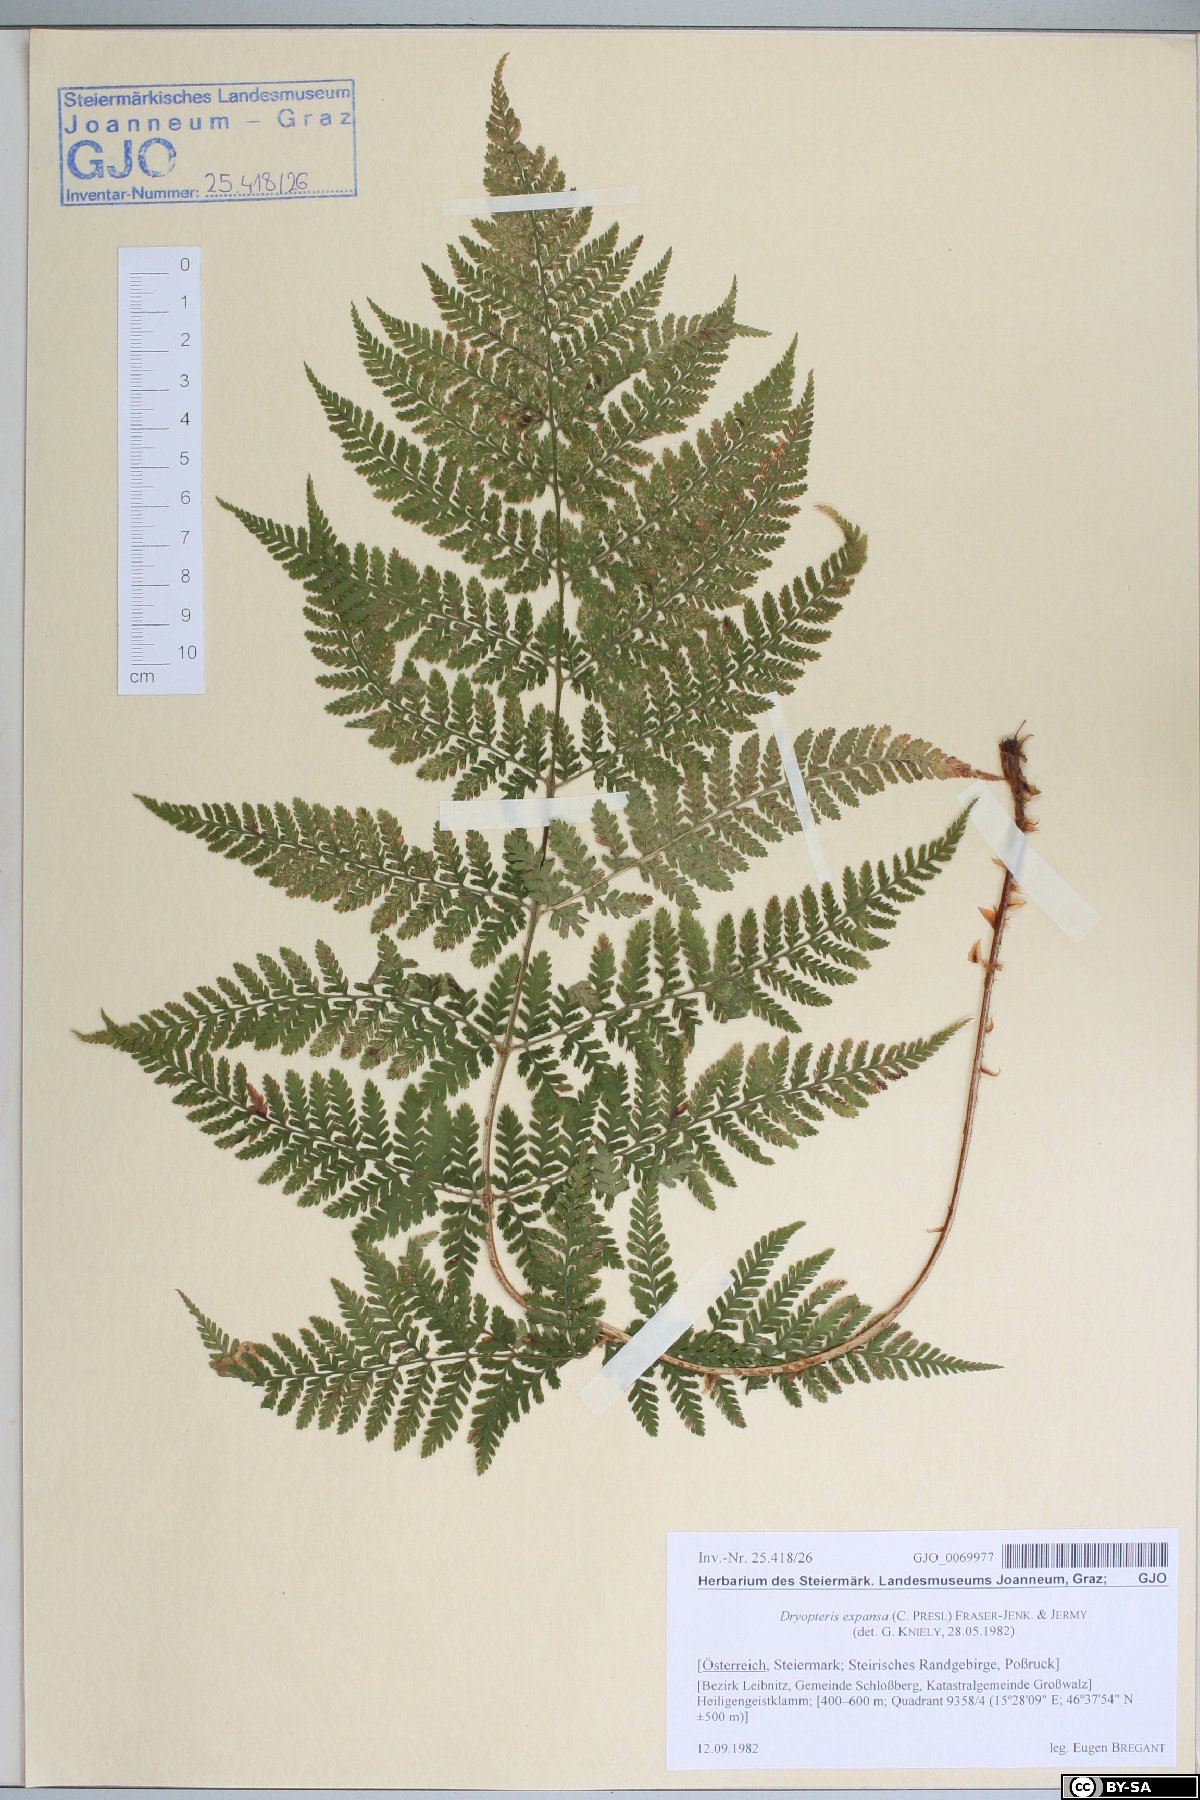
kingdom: Plantae
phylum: Tracheophyta
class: Polypodiopsida
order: Polypodiales
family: Dryopteridaceae
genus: Dryopteris
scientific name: Dryopteris expansa
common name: Northern buckler fern
